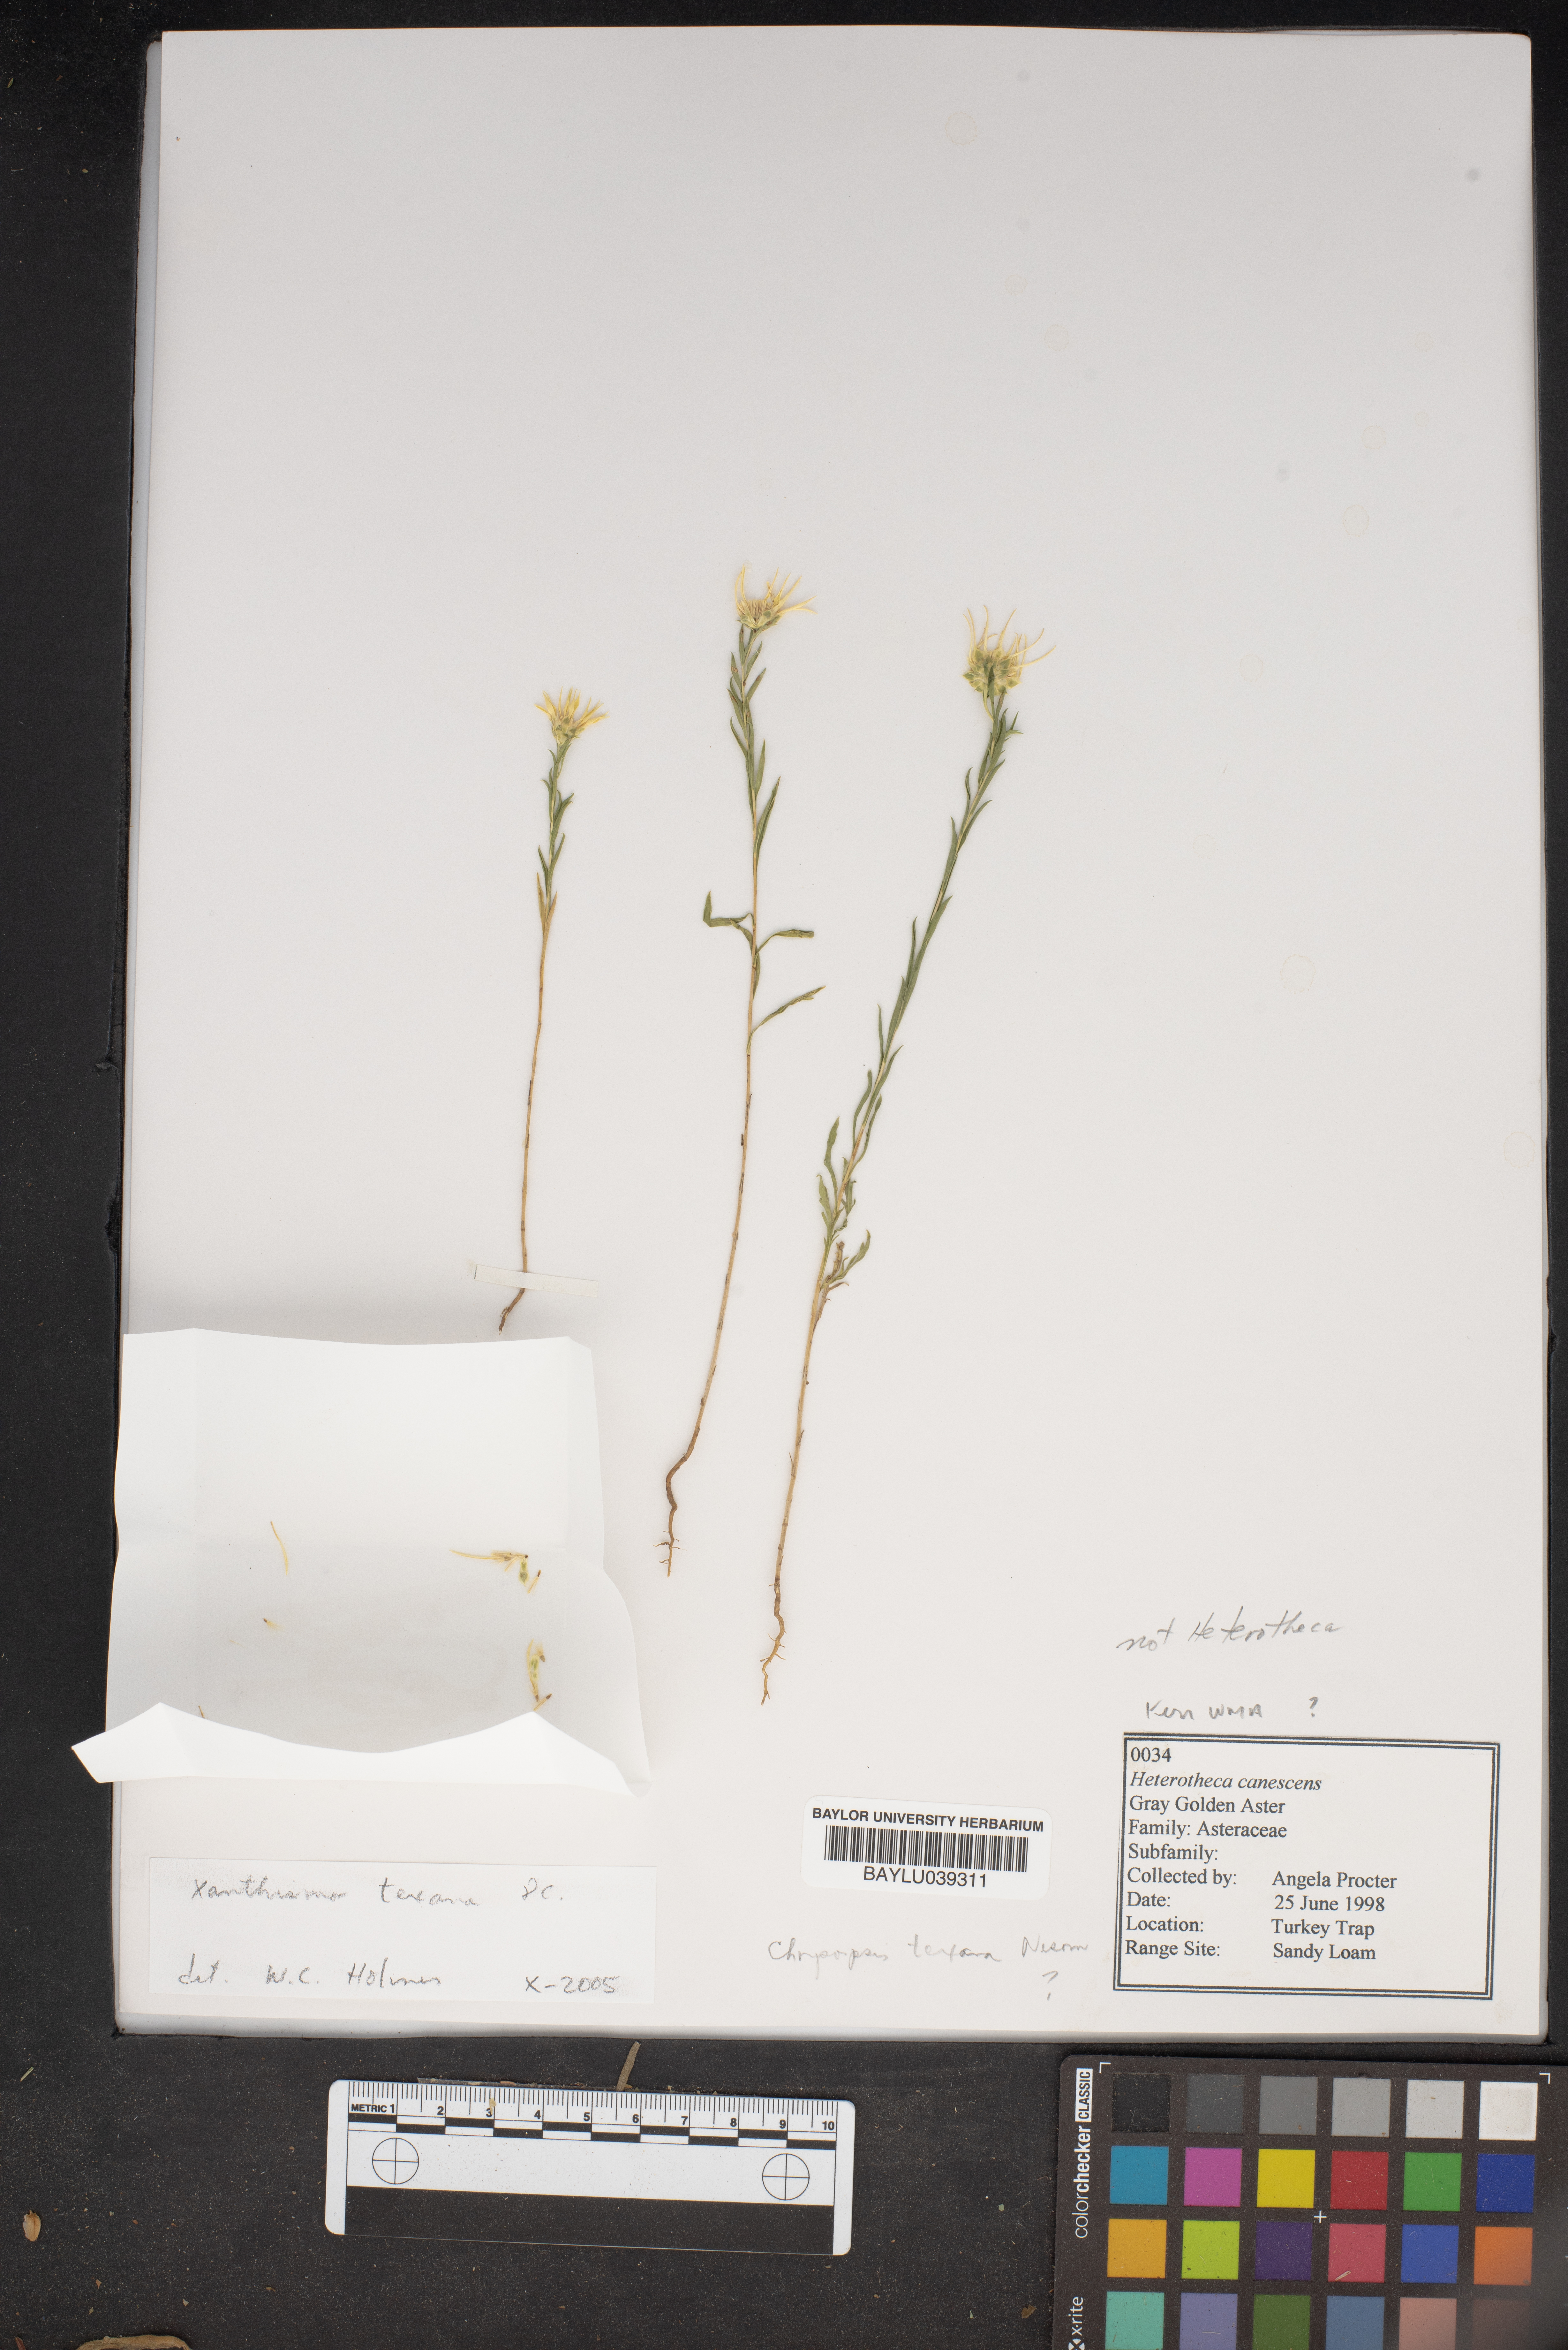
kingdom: Plantae
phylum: Tracheophyta
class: Magnoliopsida
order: Asterales
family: Asteraceae
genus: Heterotheca
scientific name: Heterotheca canescens
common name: Hoary golden-aster
